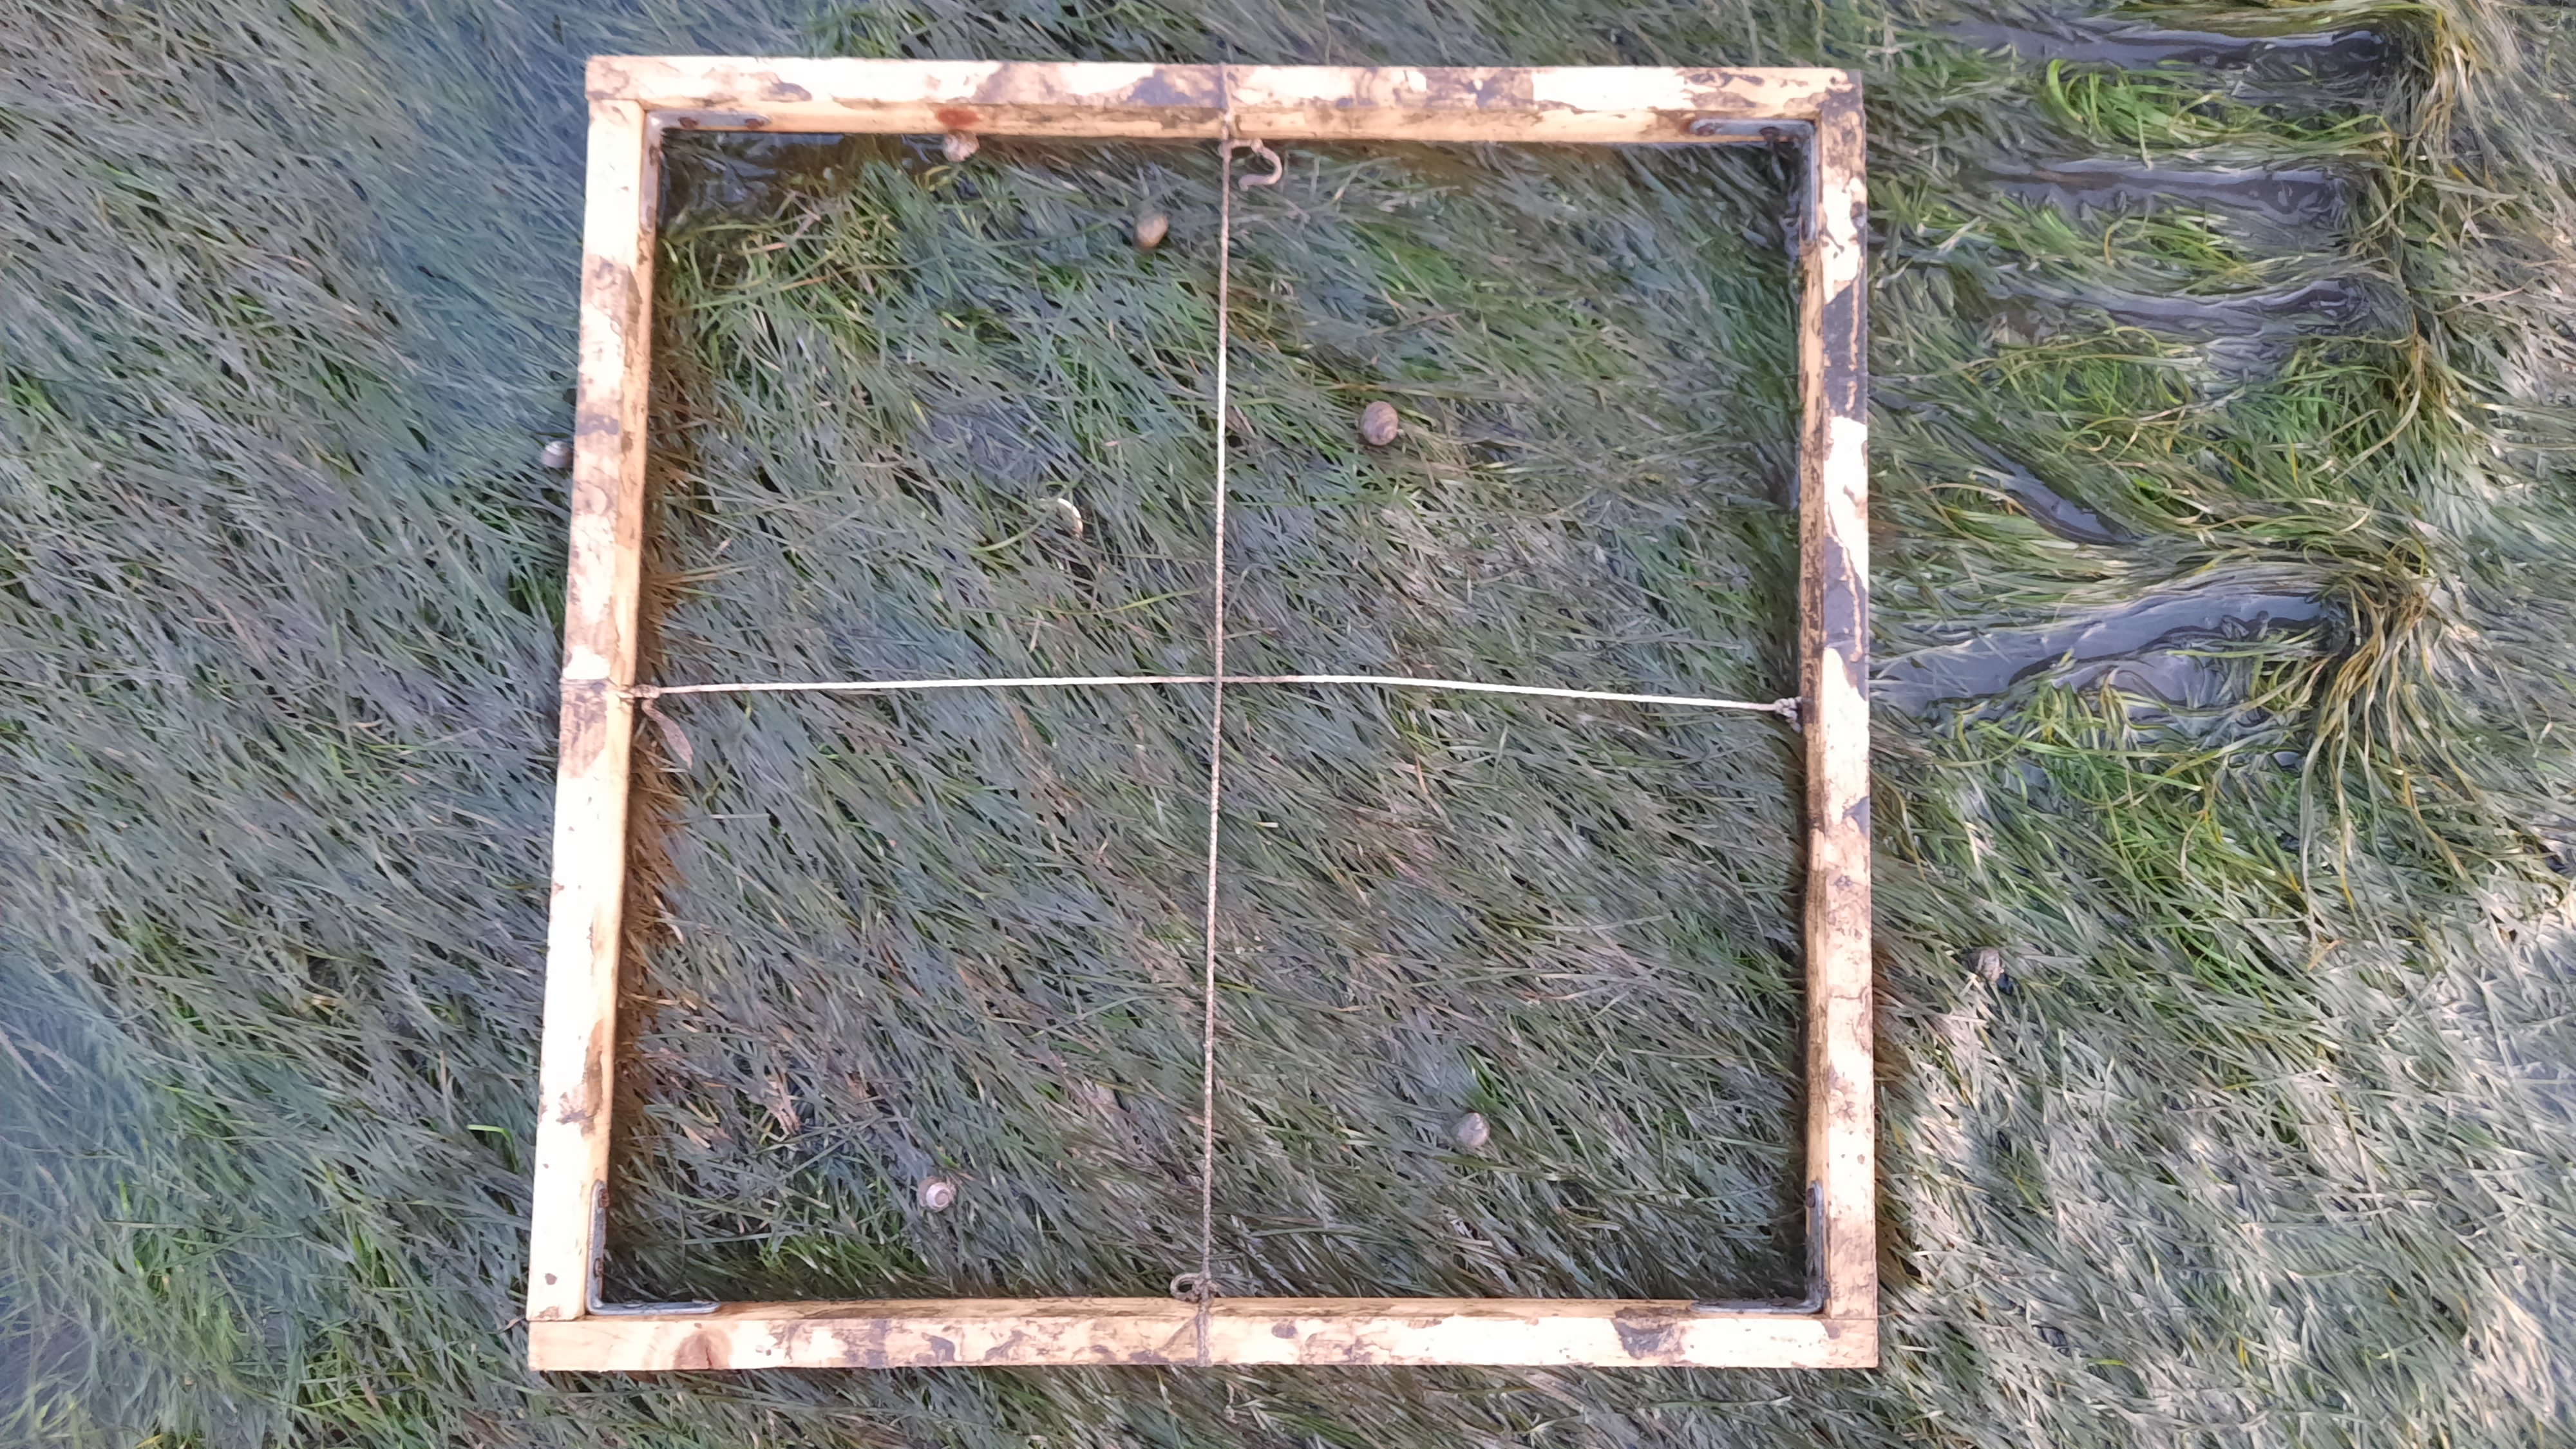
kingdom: Plantae
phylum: Tracheophyta
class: Liliopsida
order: Alismatales
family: Zosteraceae
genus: Zostera
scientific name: Zostera noltii
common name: Dwarf eelgrass
